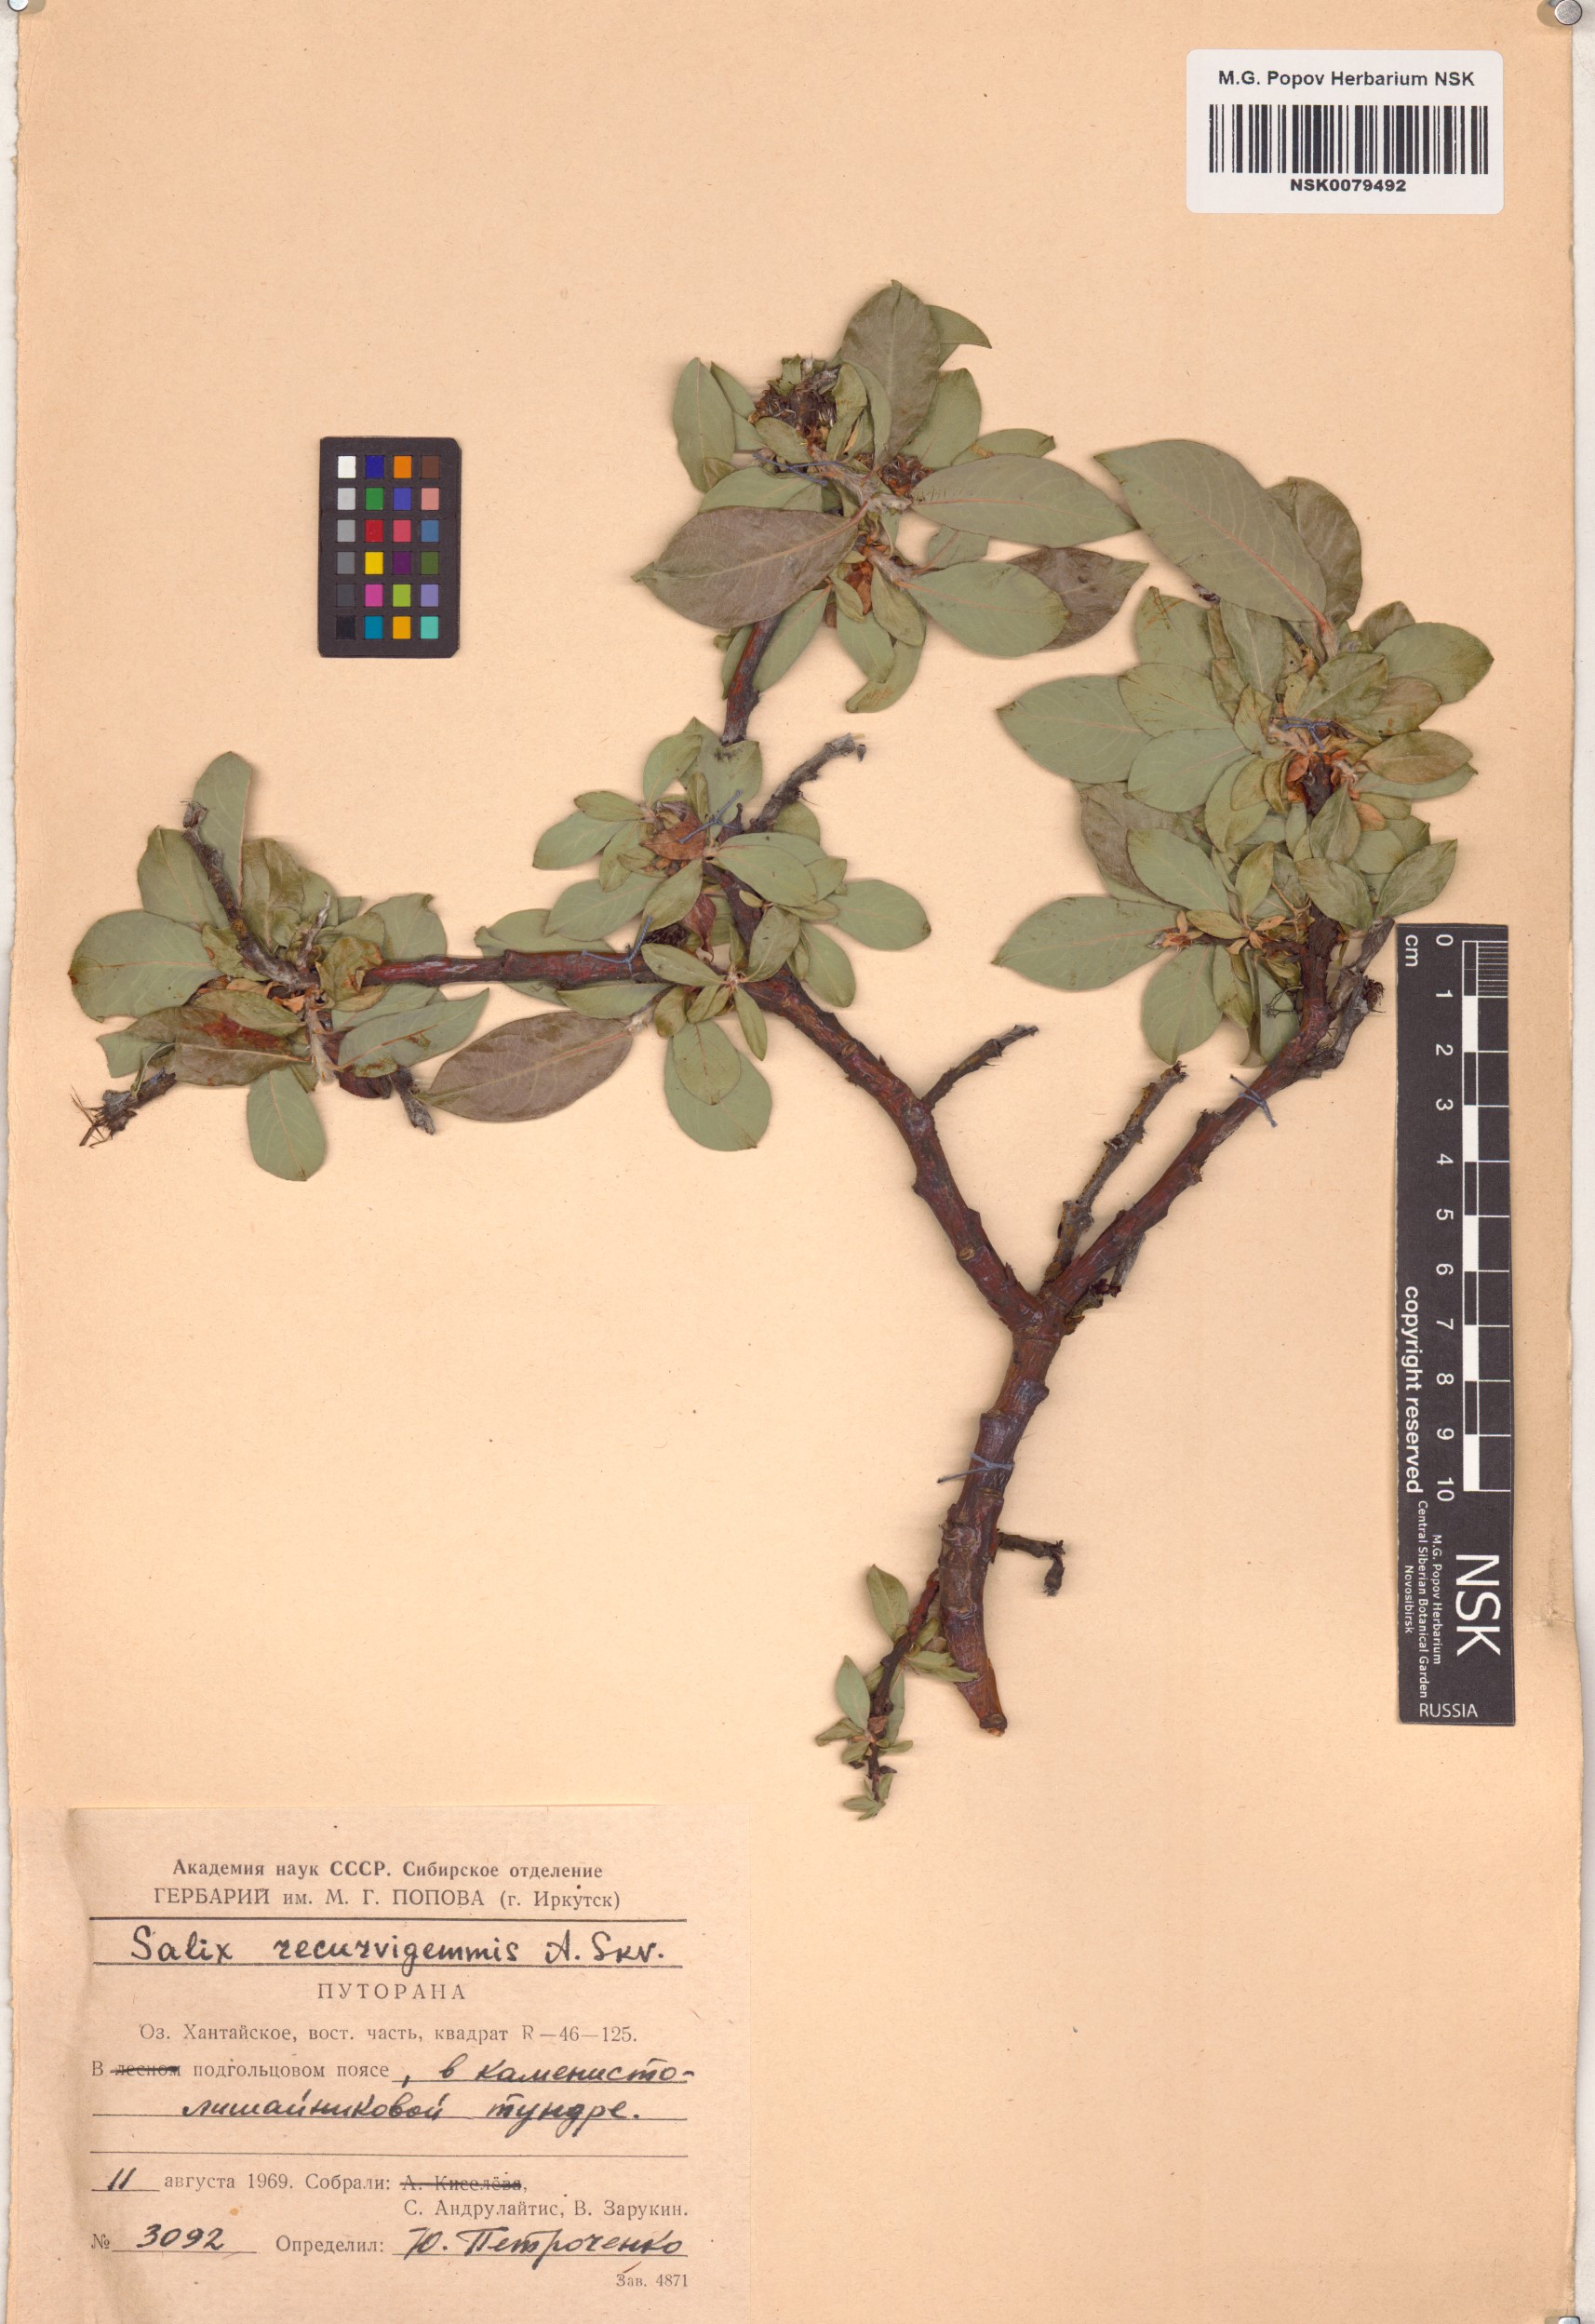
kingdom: Plantae
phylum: Tracheophyta
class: Magnoliopsida
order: Malpighiales
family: Salicaceae
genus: Salix
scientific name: Salix recurvigemmata
